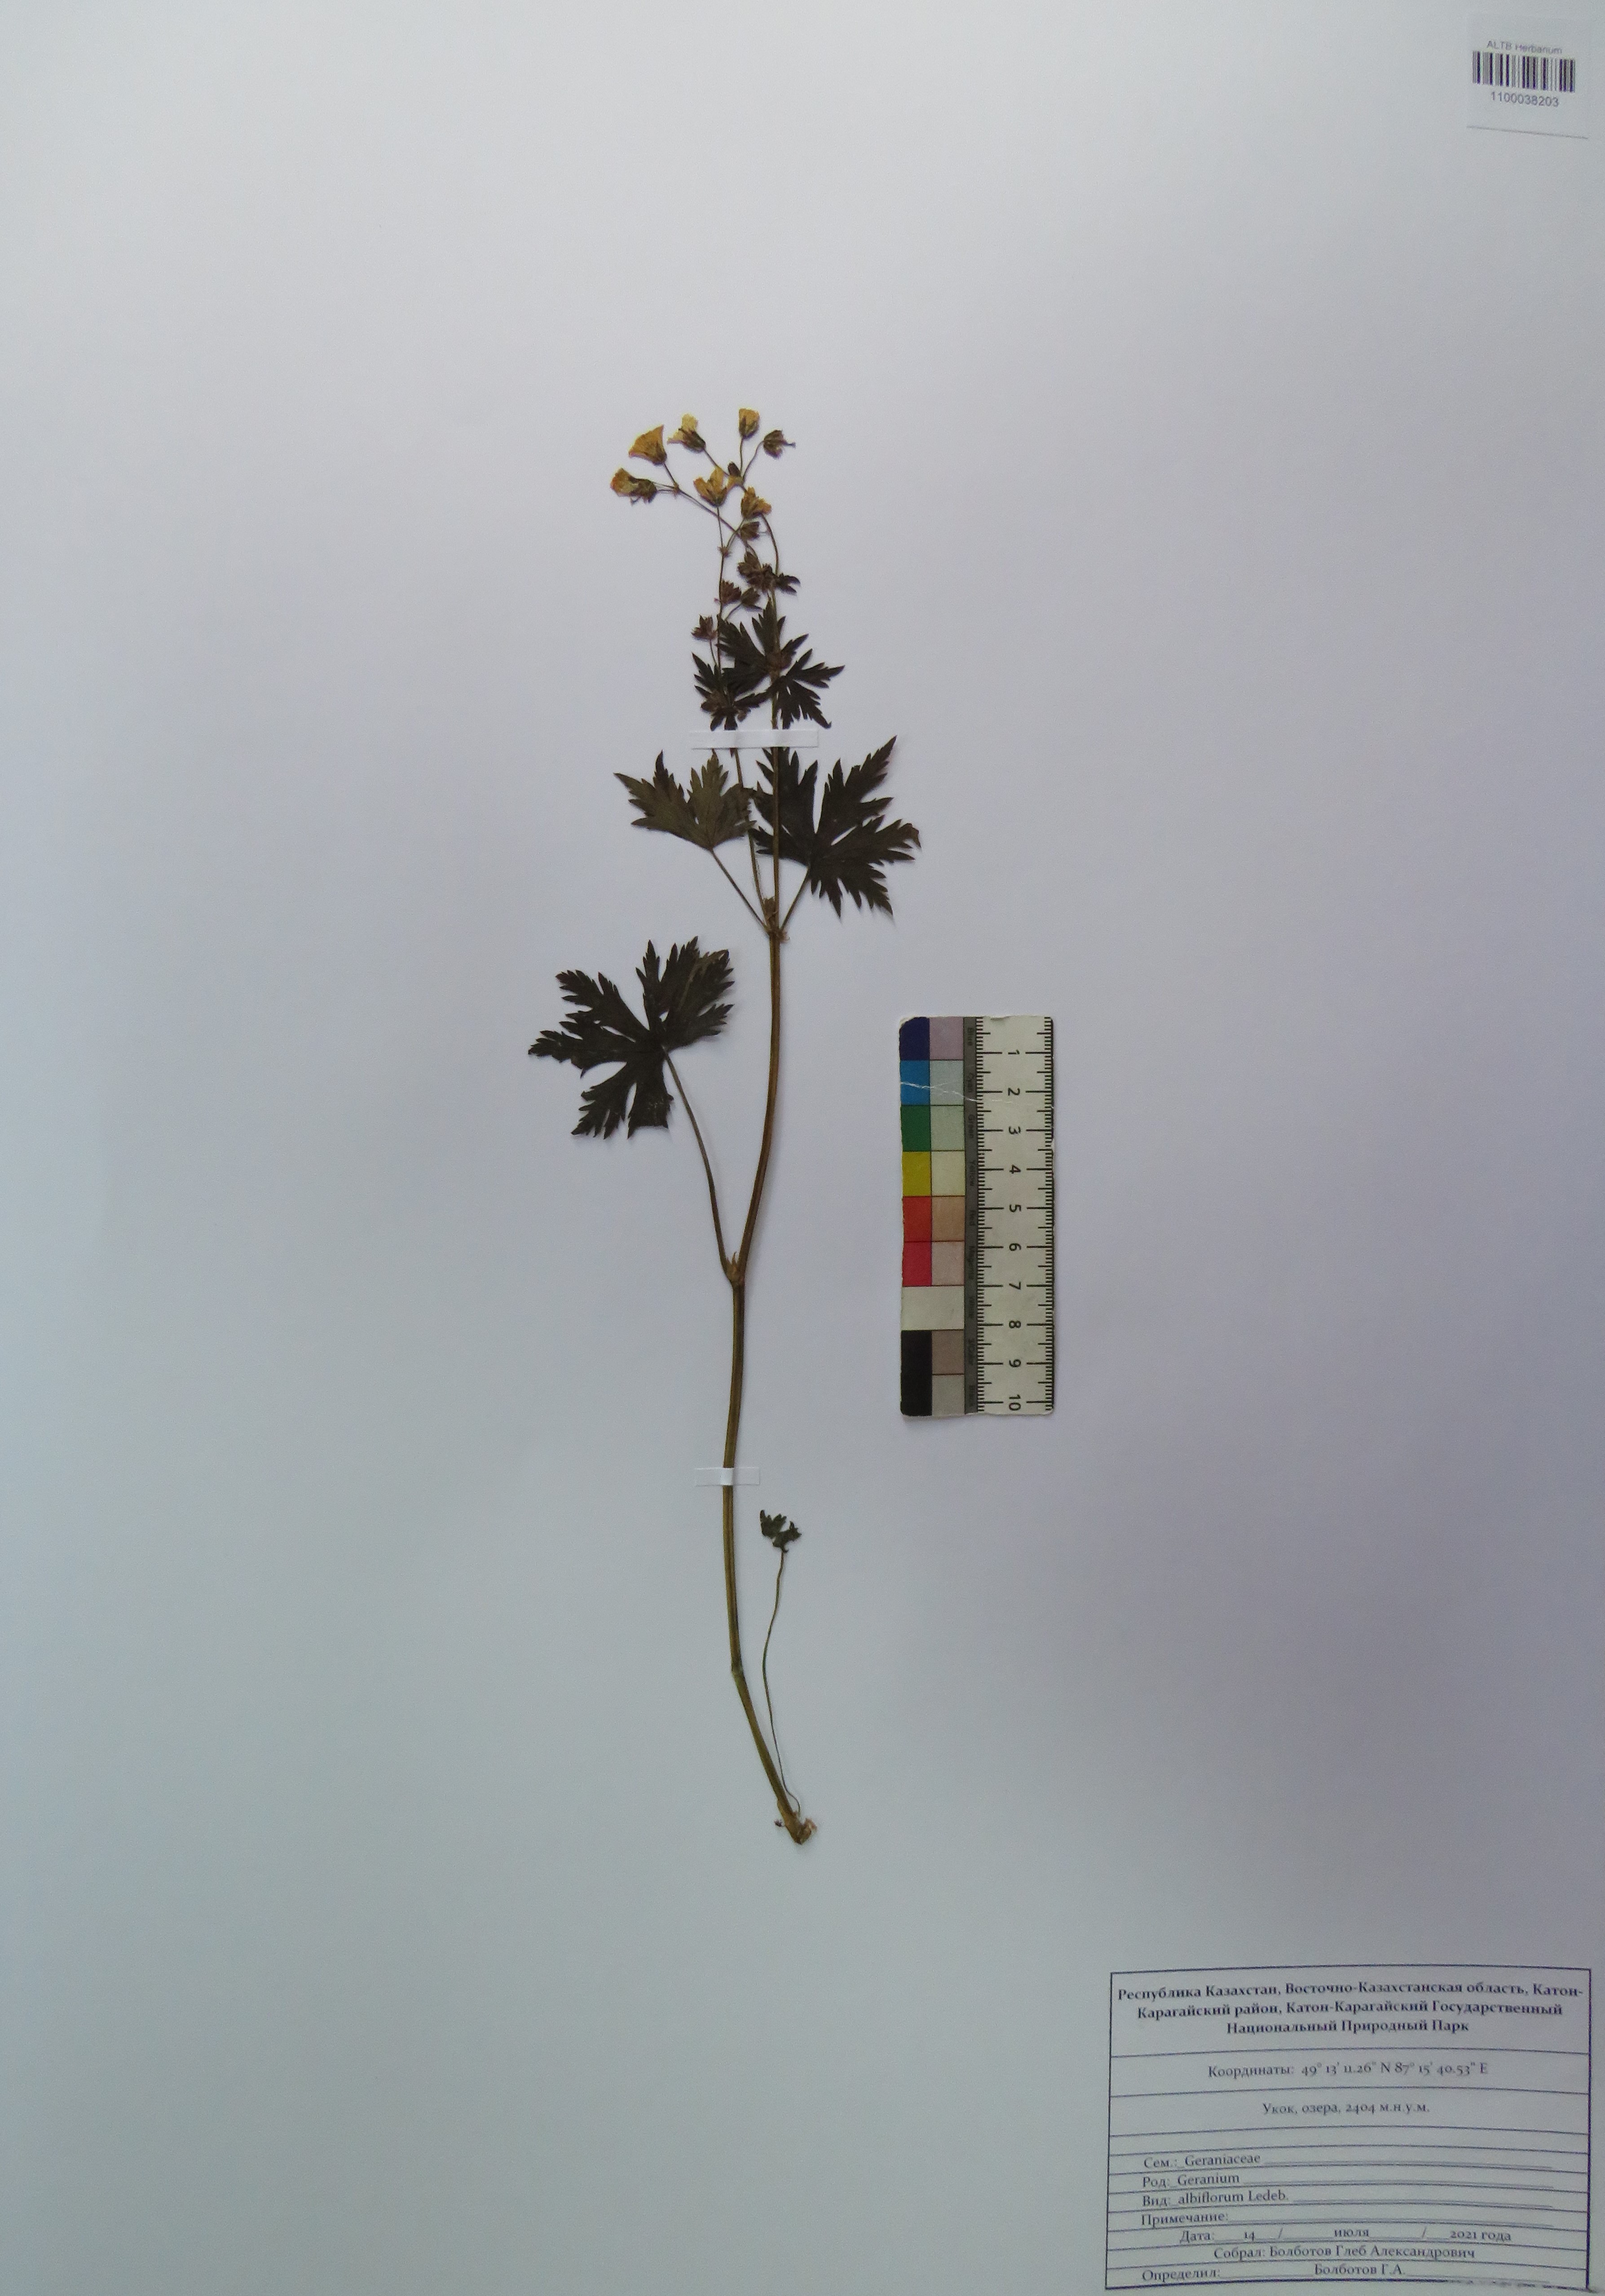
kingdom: Plantae
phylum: Tracheophyta
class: Magnoliopsida
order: Geraniales
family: Geraniaceae
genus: Geranium
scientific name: Geranium albiflorum
